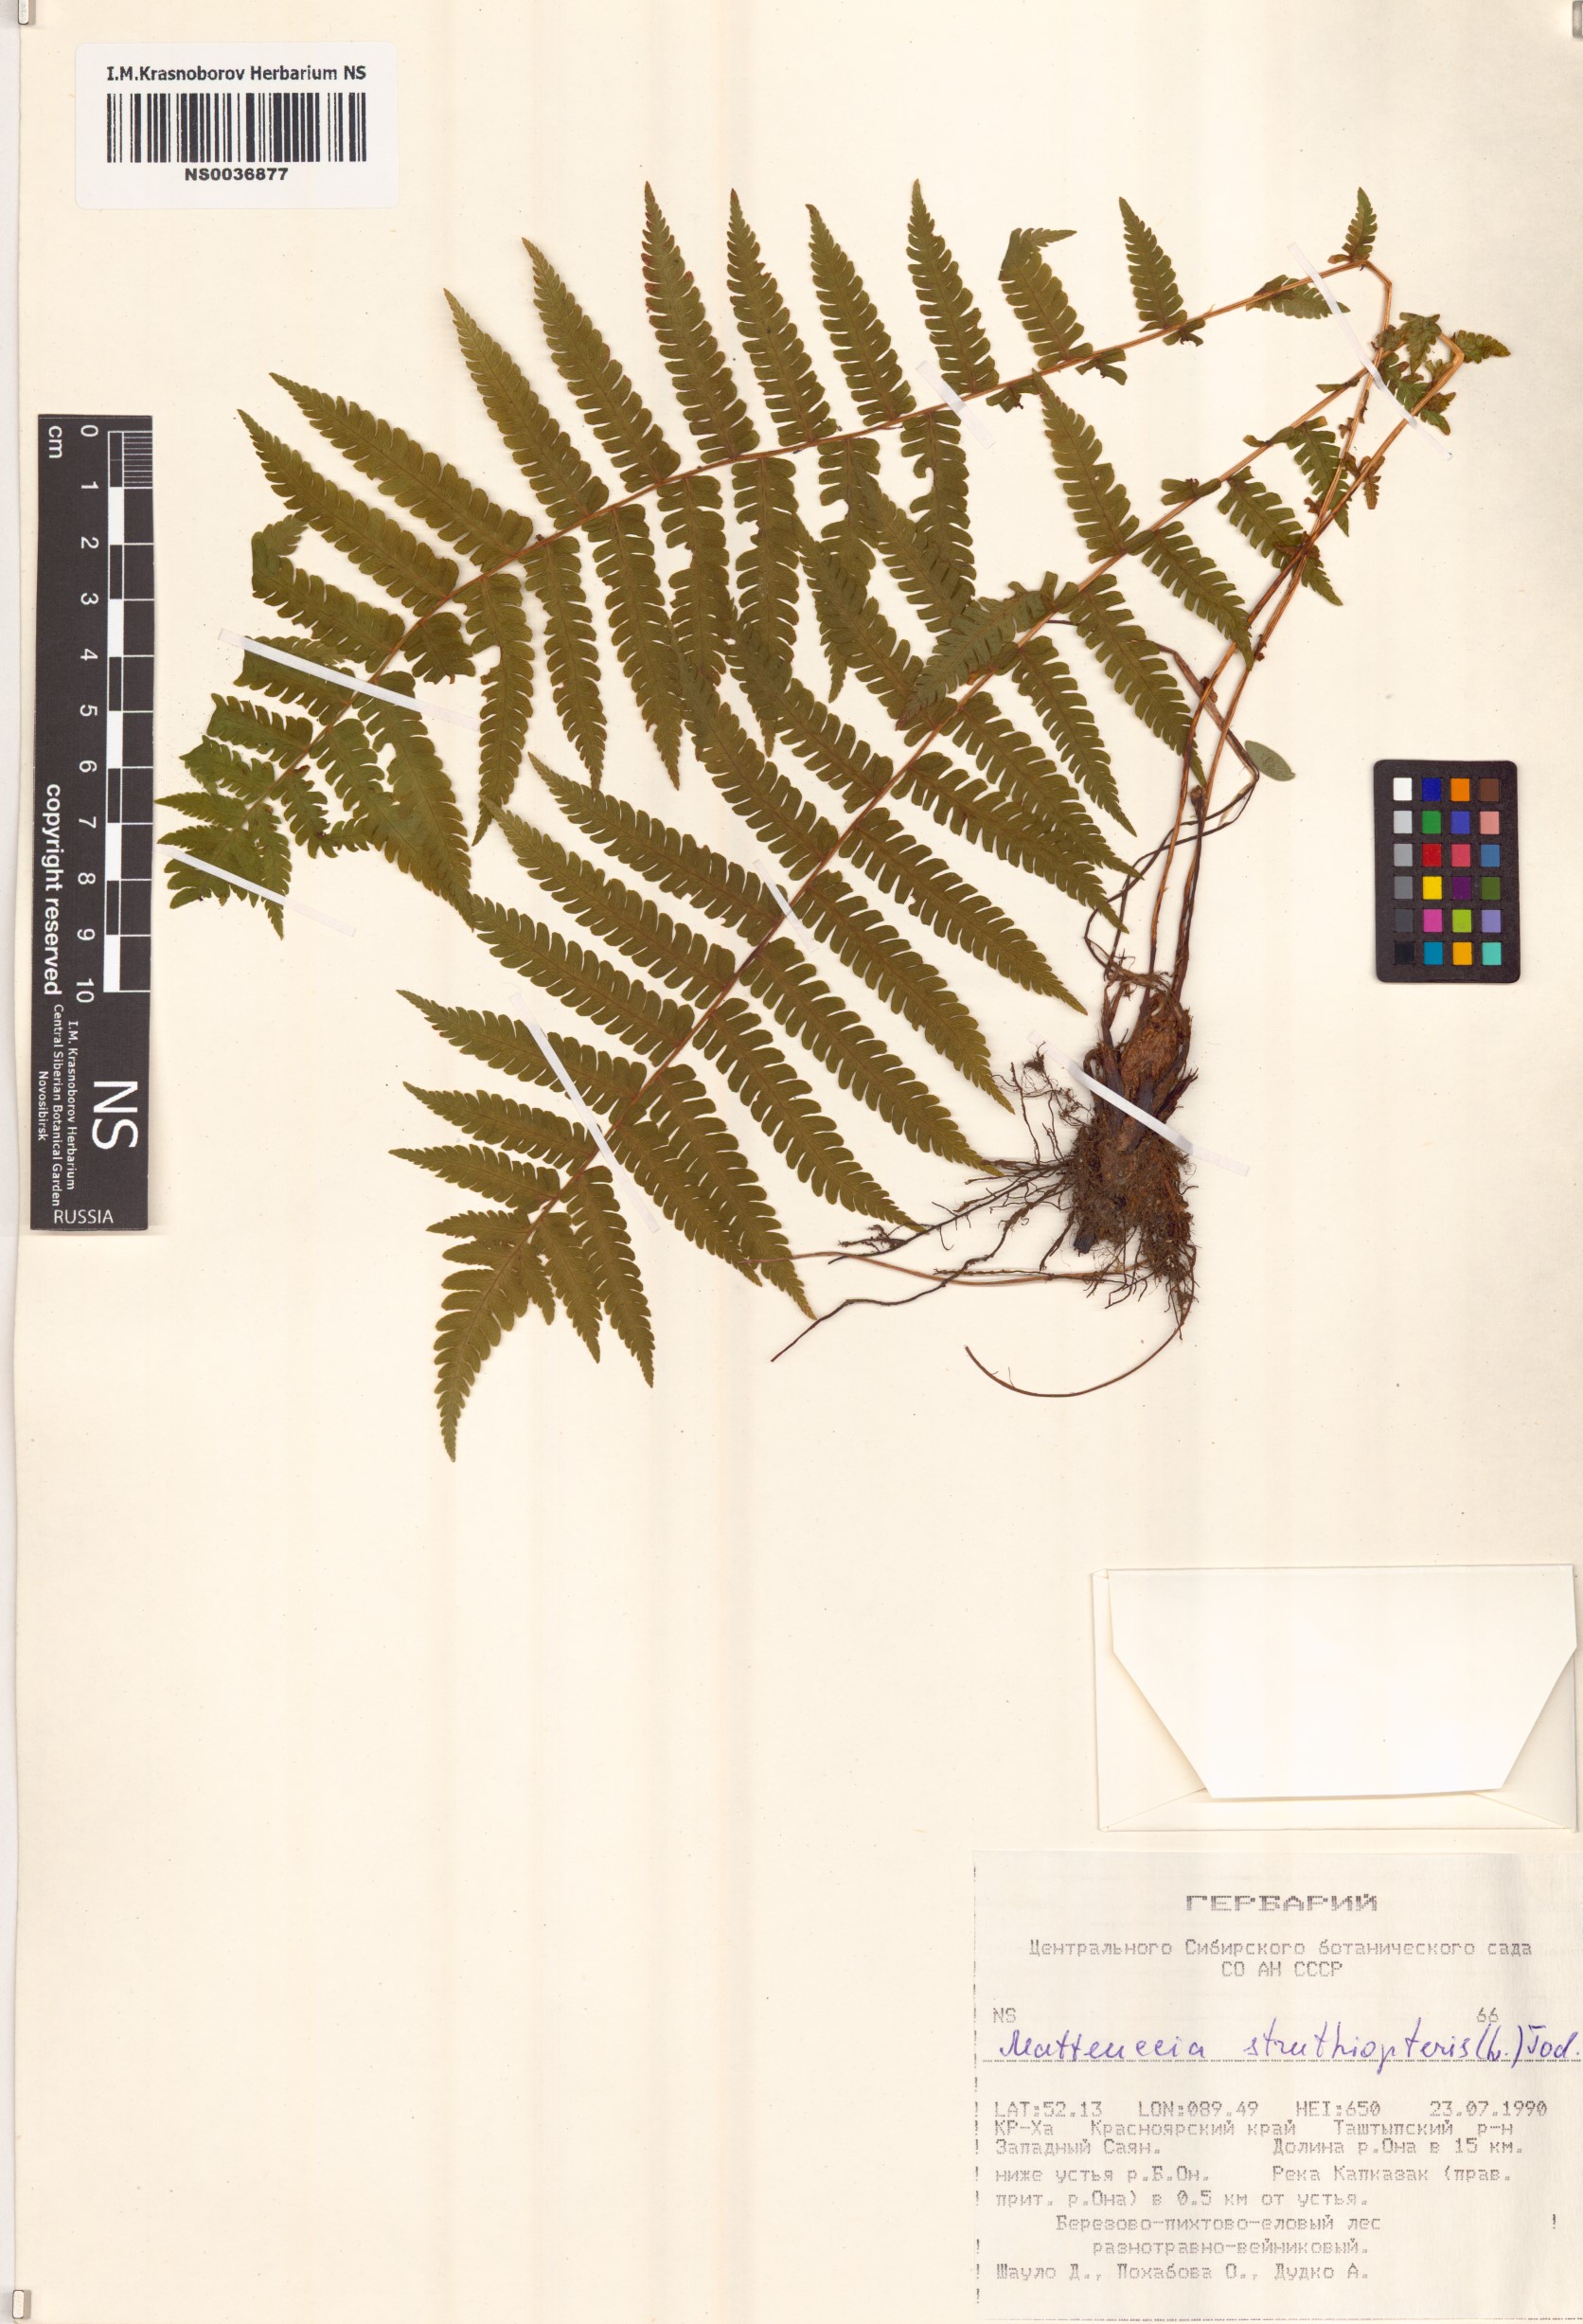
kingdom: Plantae
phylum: Tracheophyta
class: Polypodiopsida
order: Polypodiales
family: Onocleaceae
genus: Matteuccia
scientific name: Matteuccia struthiopteris
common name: Ostrich fern
